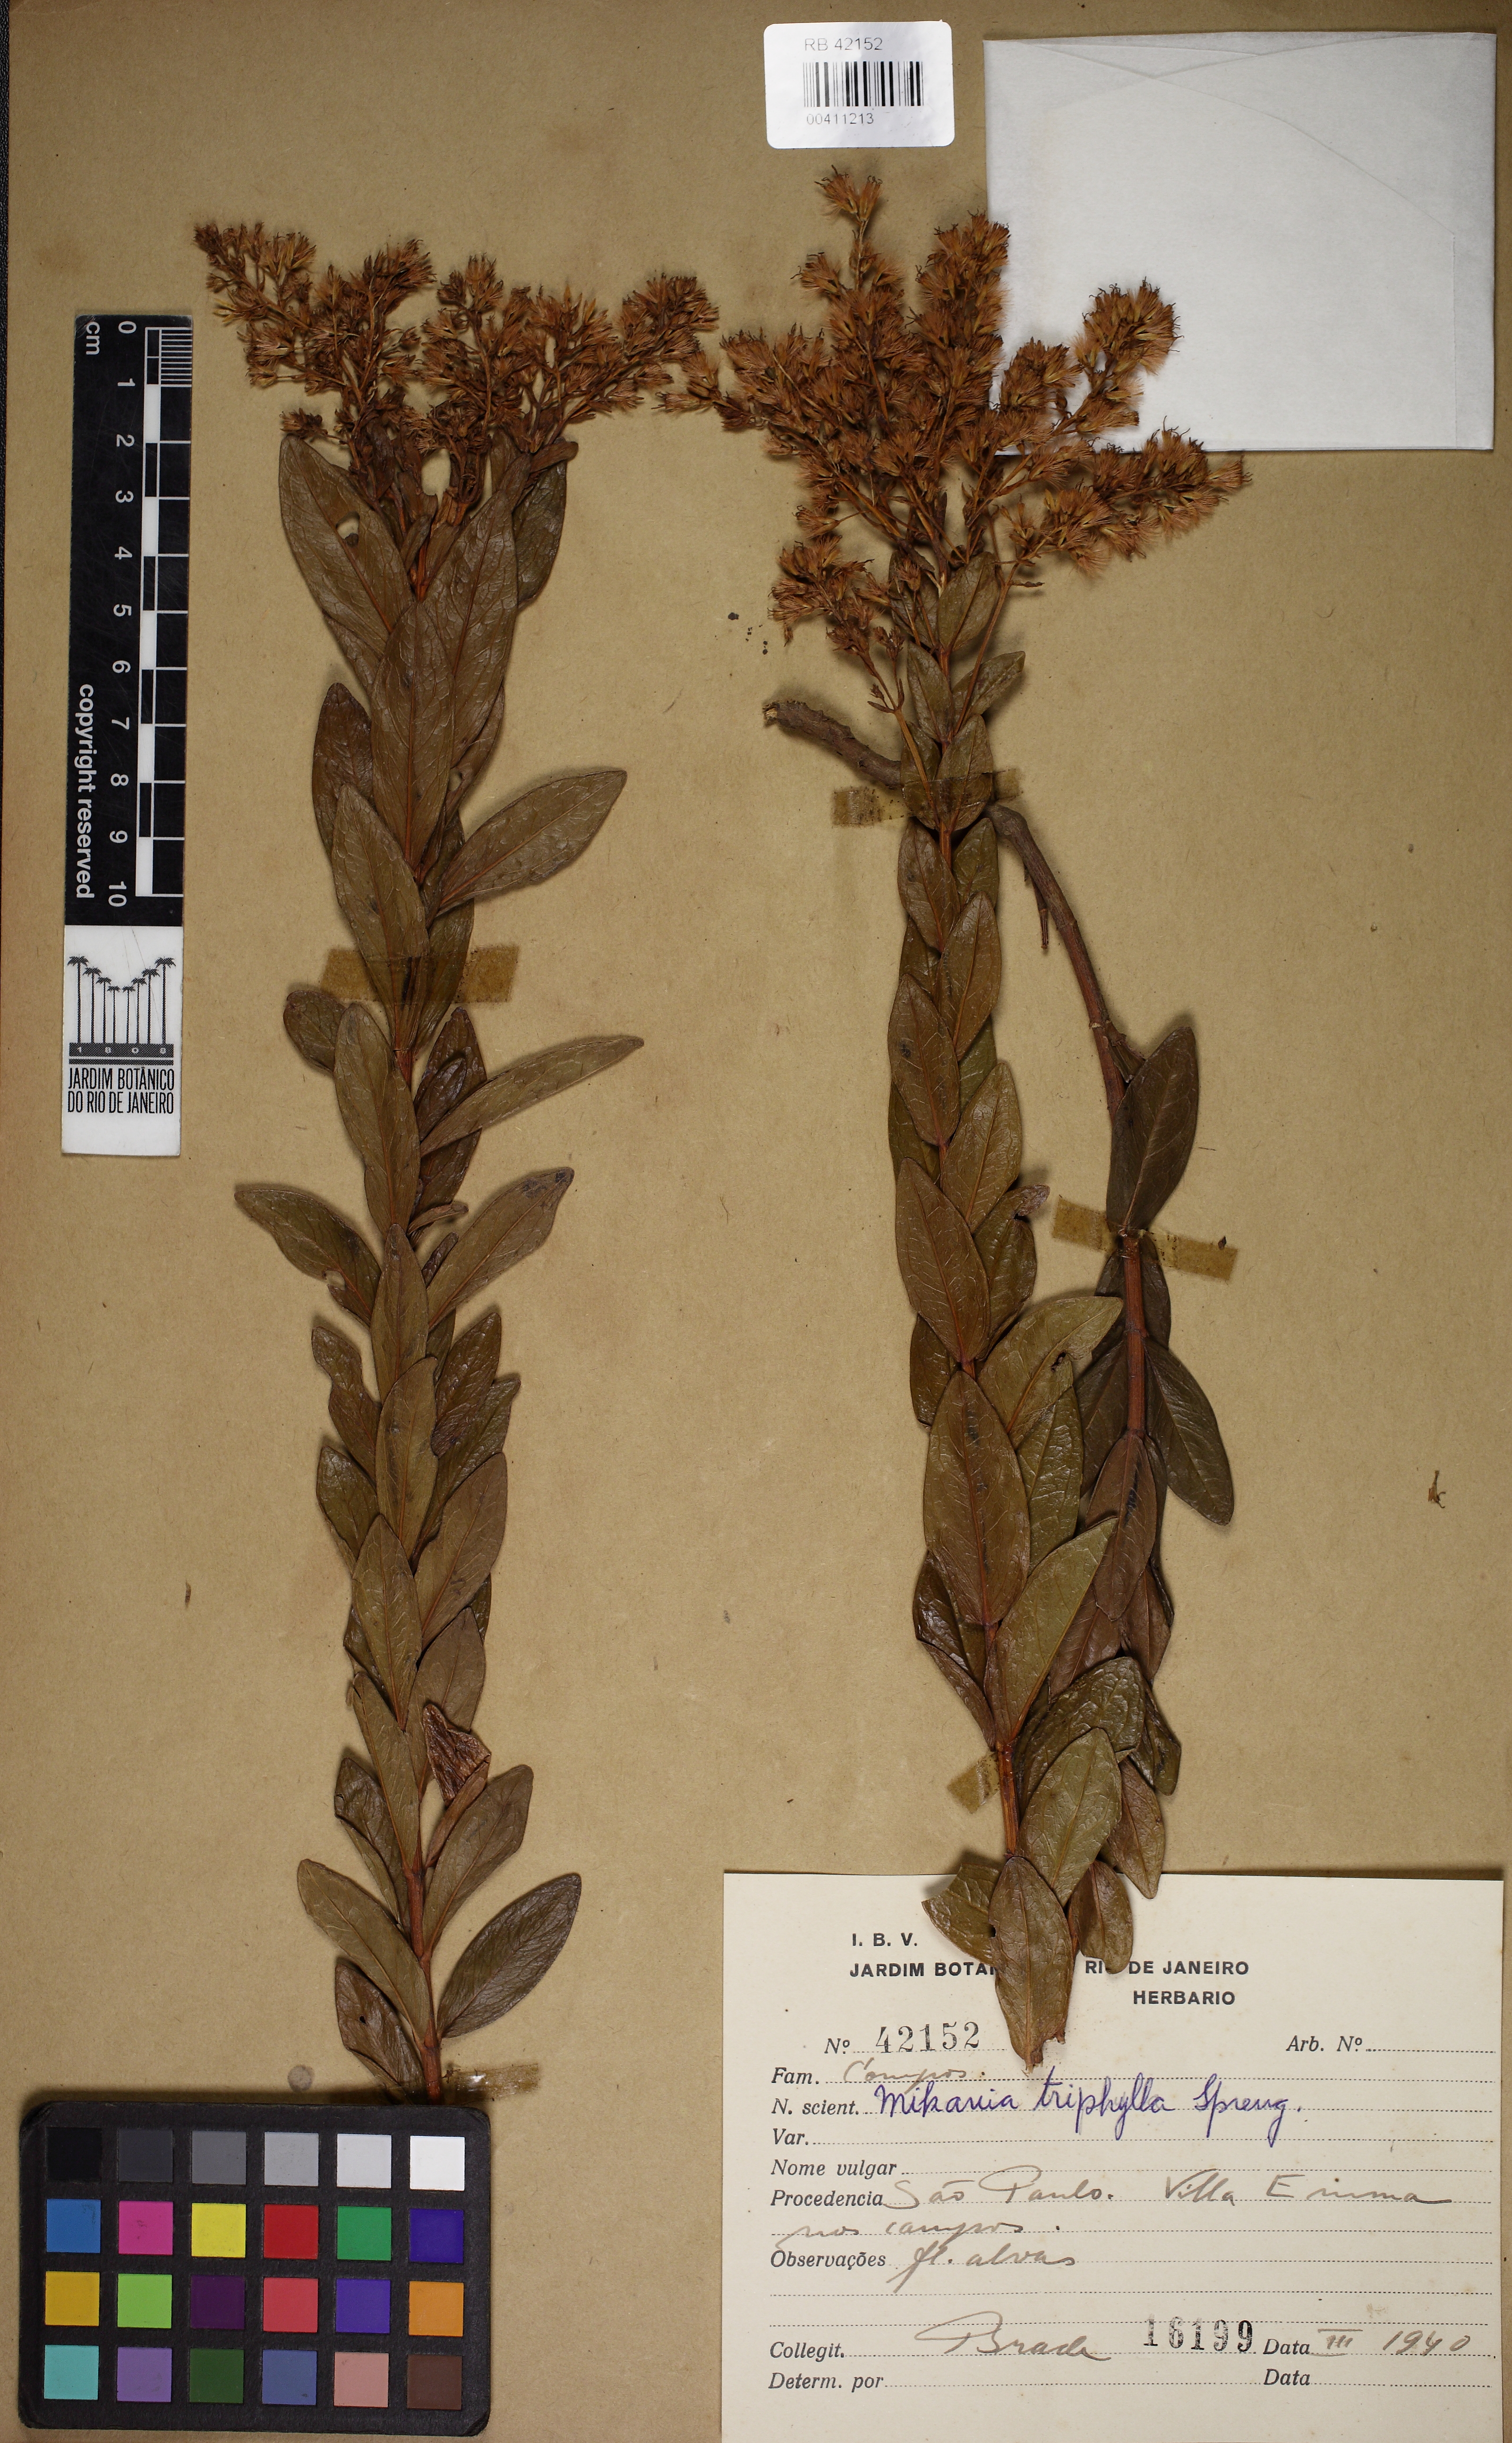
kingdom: Plantae
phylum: Tracheophyta
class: Magnoliopsida
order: Asterales
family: Asteraceae
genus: Mikania
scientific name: Mikania triphylla
